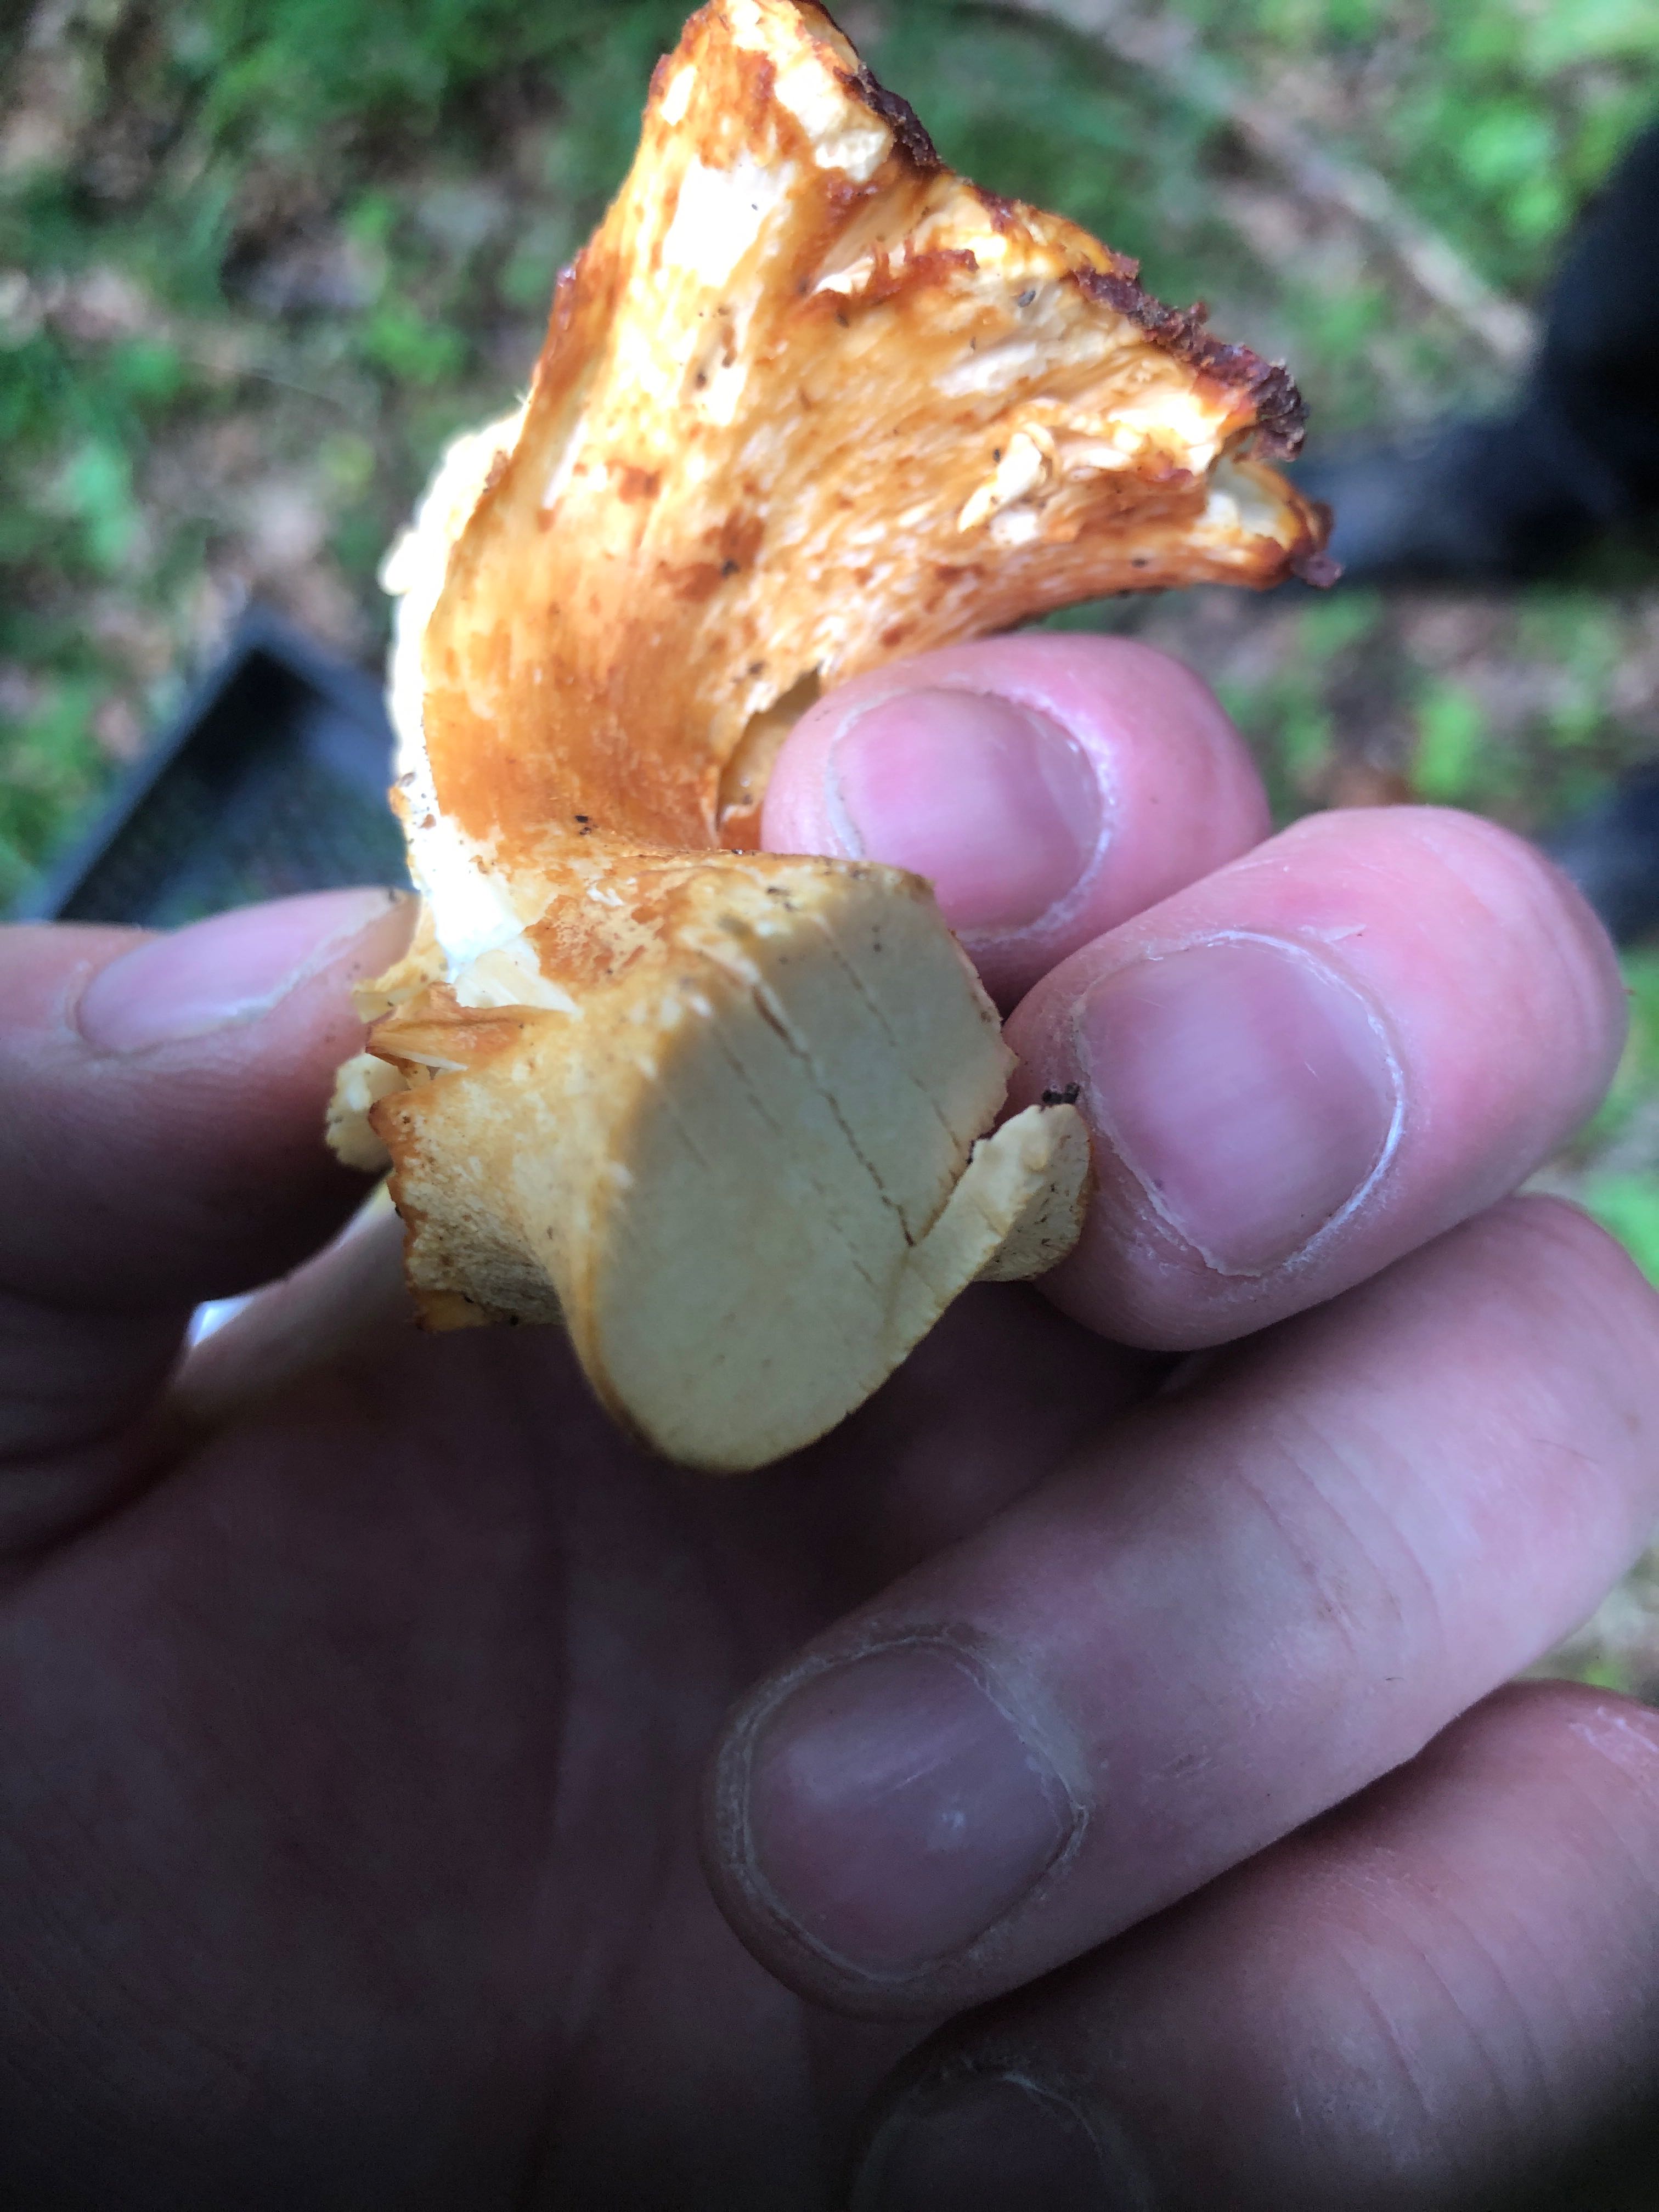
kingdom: Fungi
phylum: Basidiomycota
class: Agaricomycetes
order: Cantharellales
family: Hydnaceae
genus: Cantharellus
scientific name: Cantharellus
